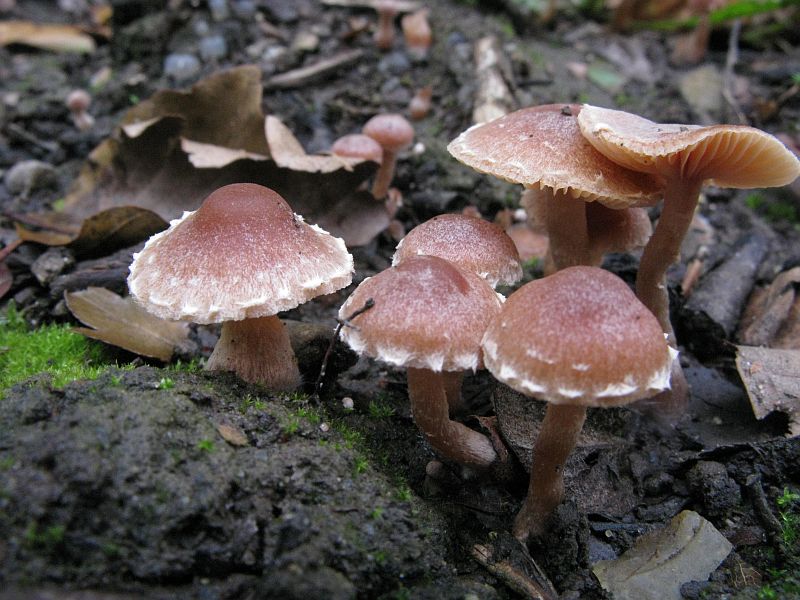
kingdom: Fungi
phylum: Basidiomycota
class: Agaricomycetes
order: Agaricales
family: Tubariaceae
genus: Tubaria
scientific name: Tubaria furfuracea
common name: kliddet fnughat
